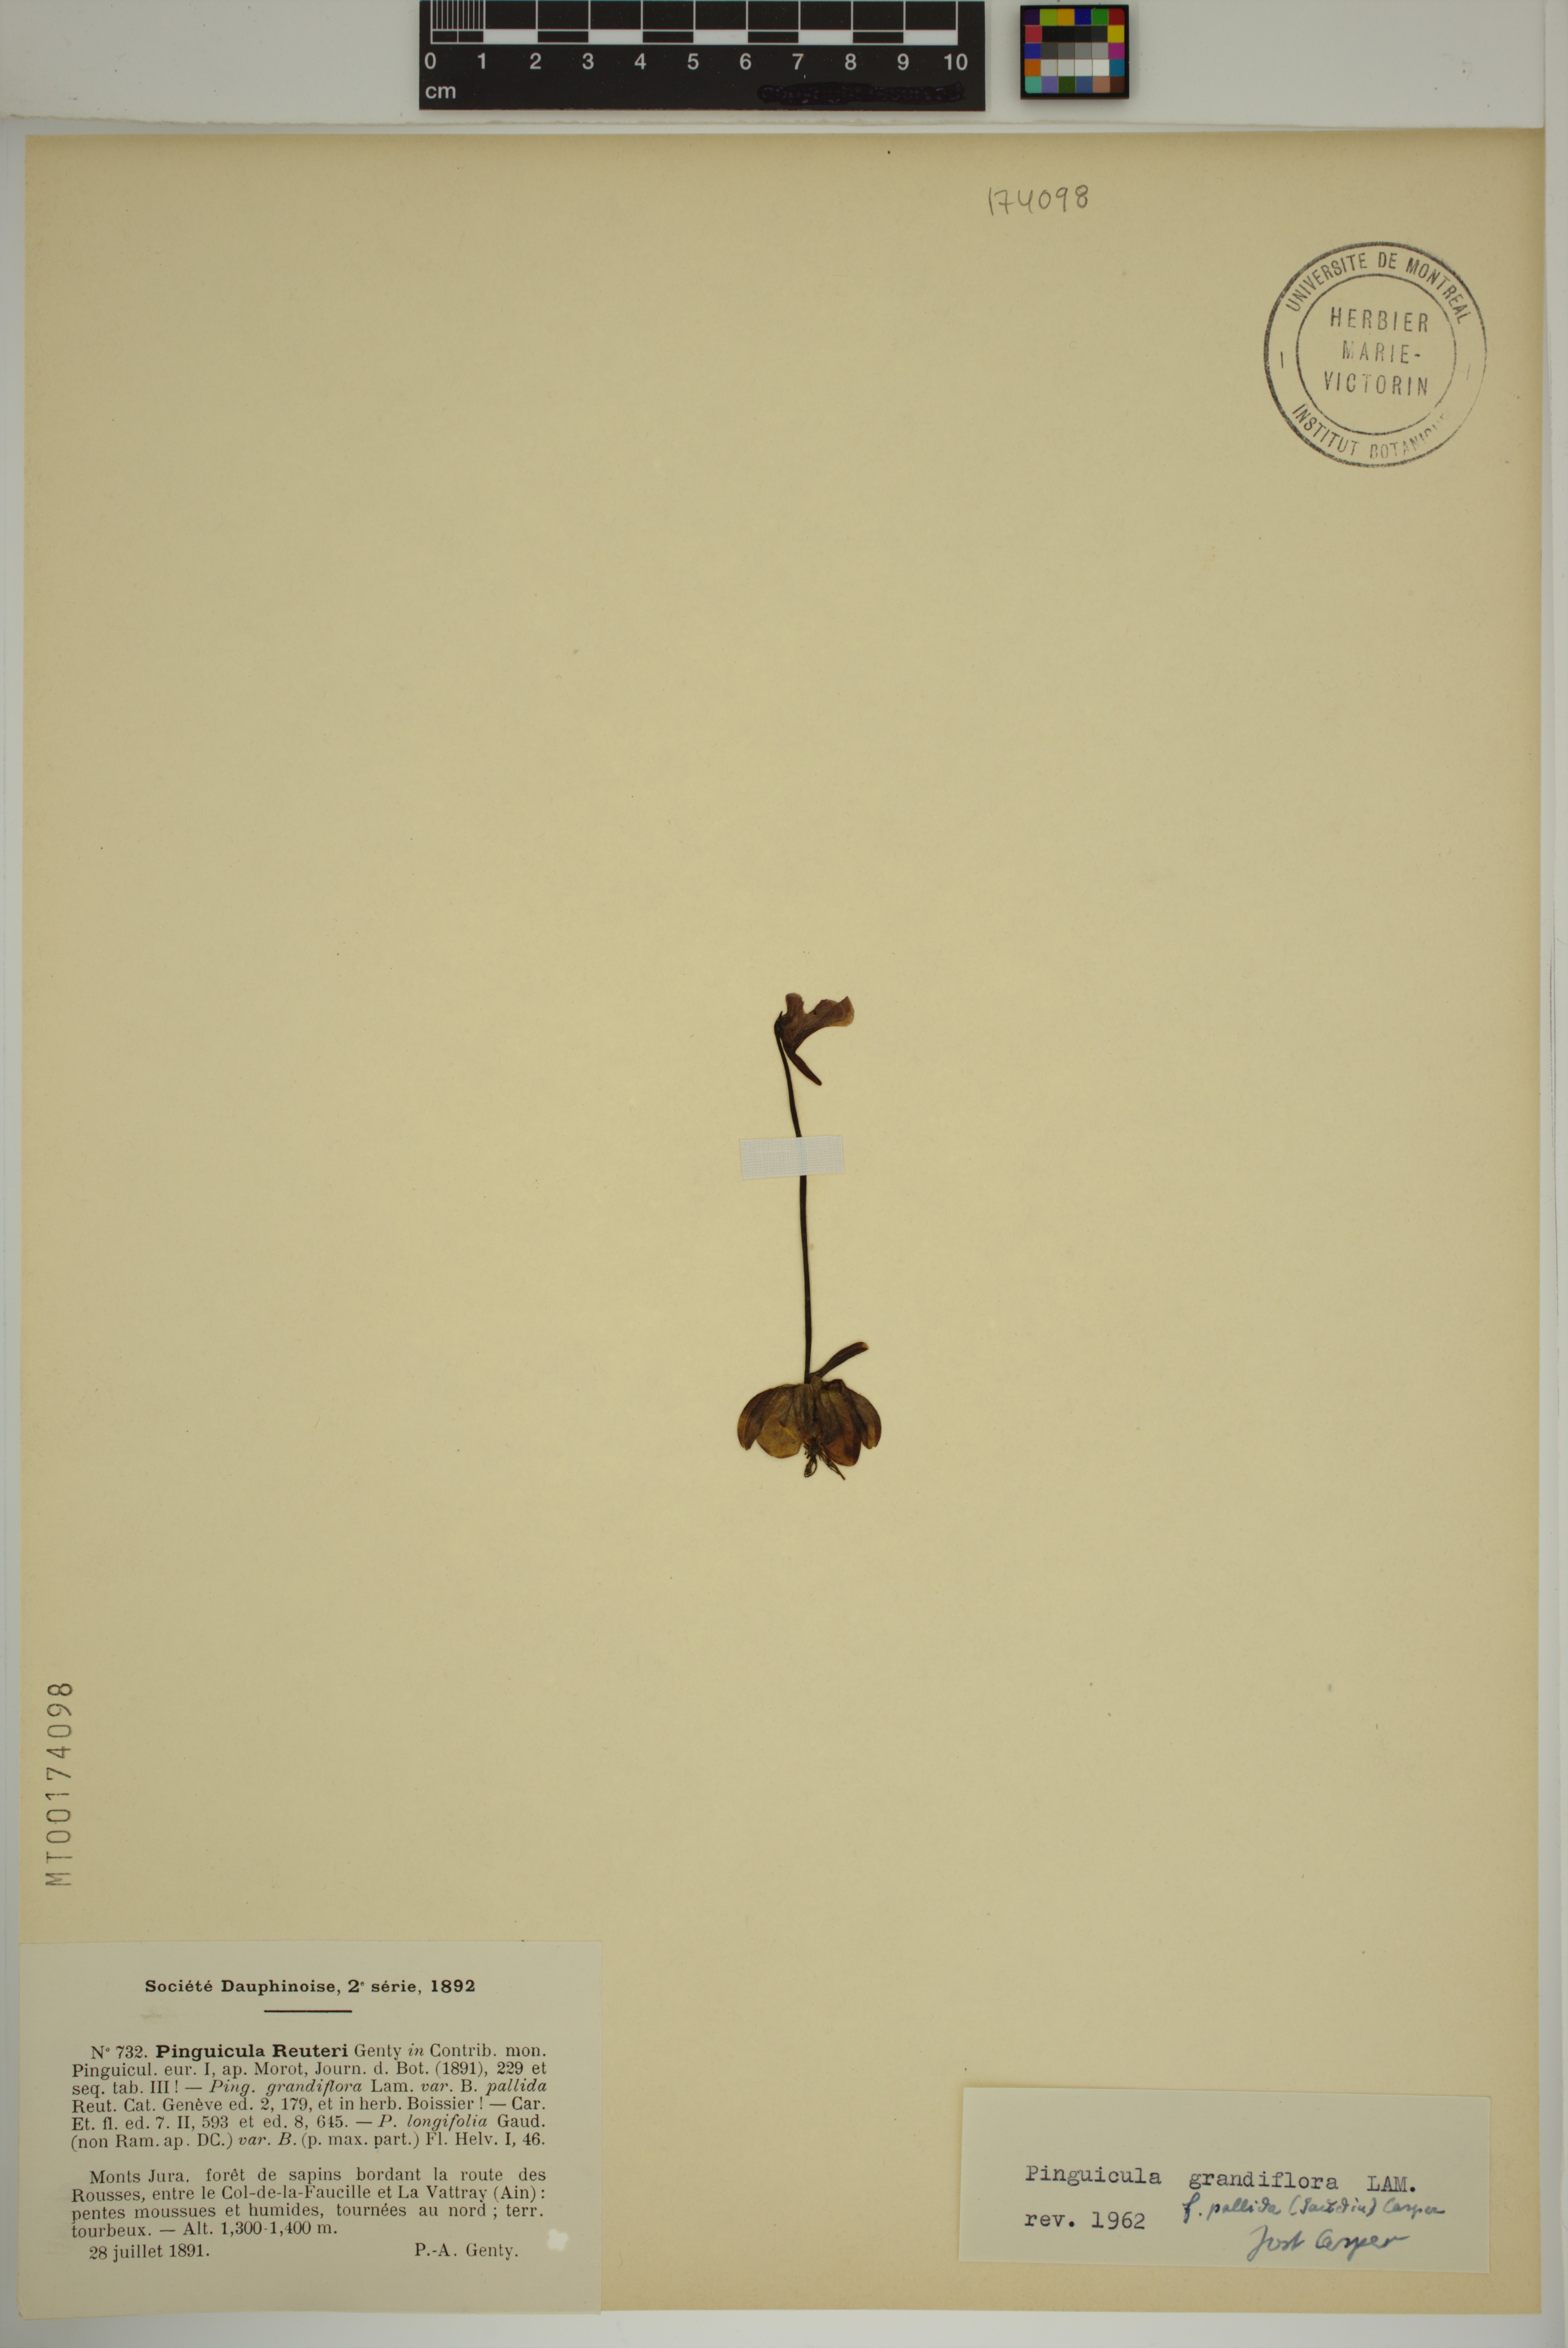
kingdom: Plantae
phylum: Tracheophyta
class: Magnoliopsida
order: Lamiales
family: Lentibulariaceae
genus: Pinguicula
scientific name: Pinguicula grandiflora
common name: Large-flowered butterwort
